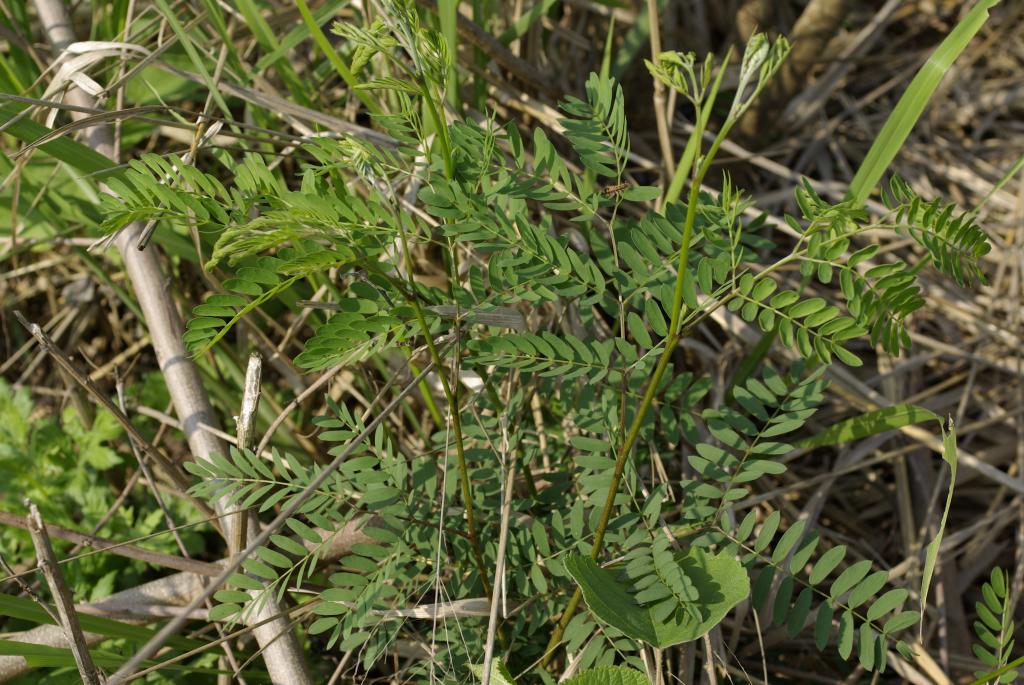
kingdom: Plantae
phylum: Tracheophyta
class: Magnoliopsida
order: Fabales
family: Fabaceae
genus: Leucaena
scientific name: Leucaena leucocephala
